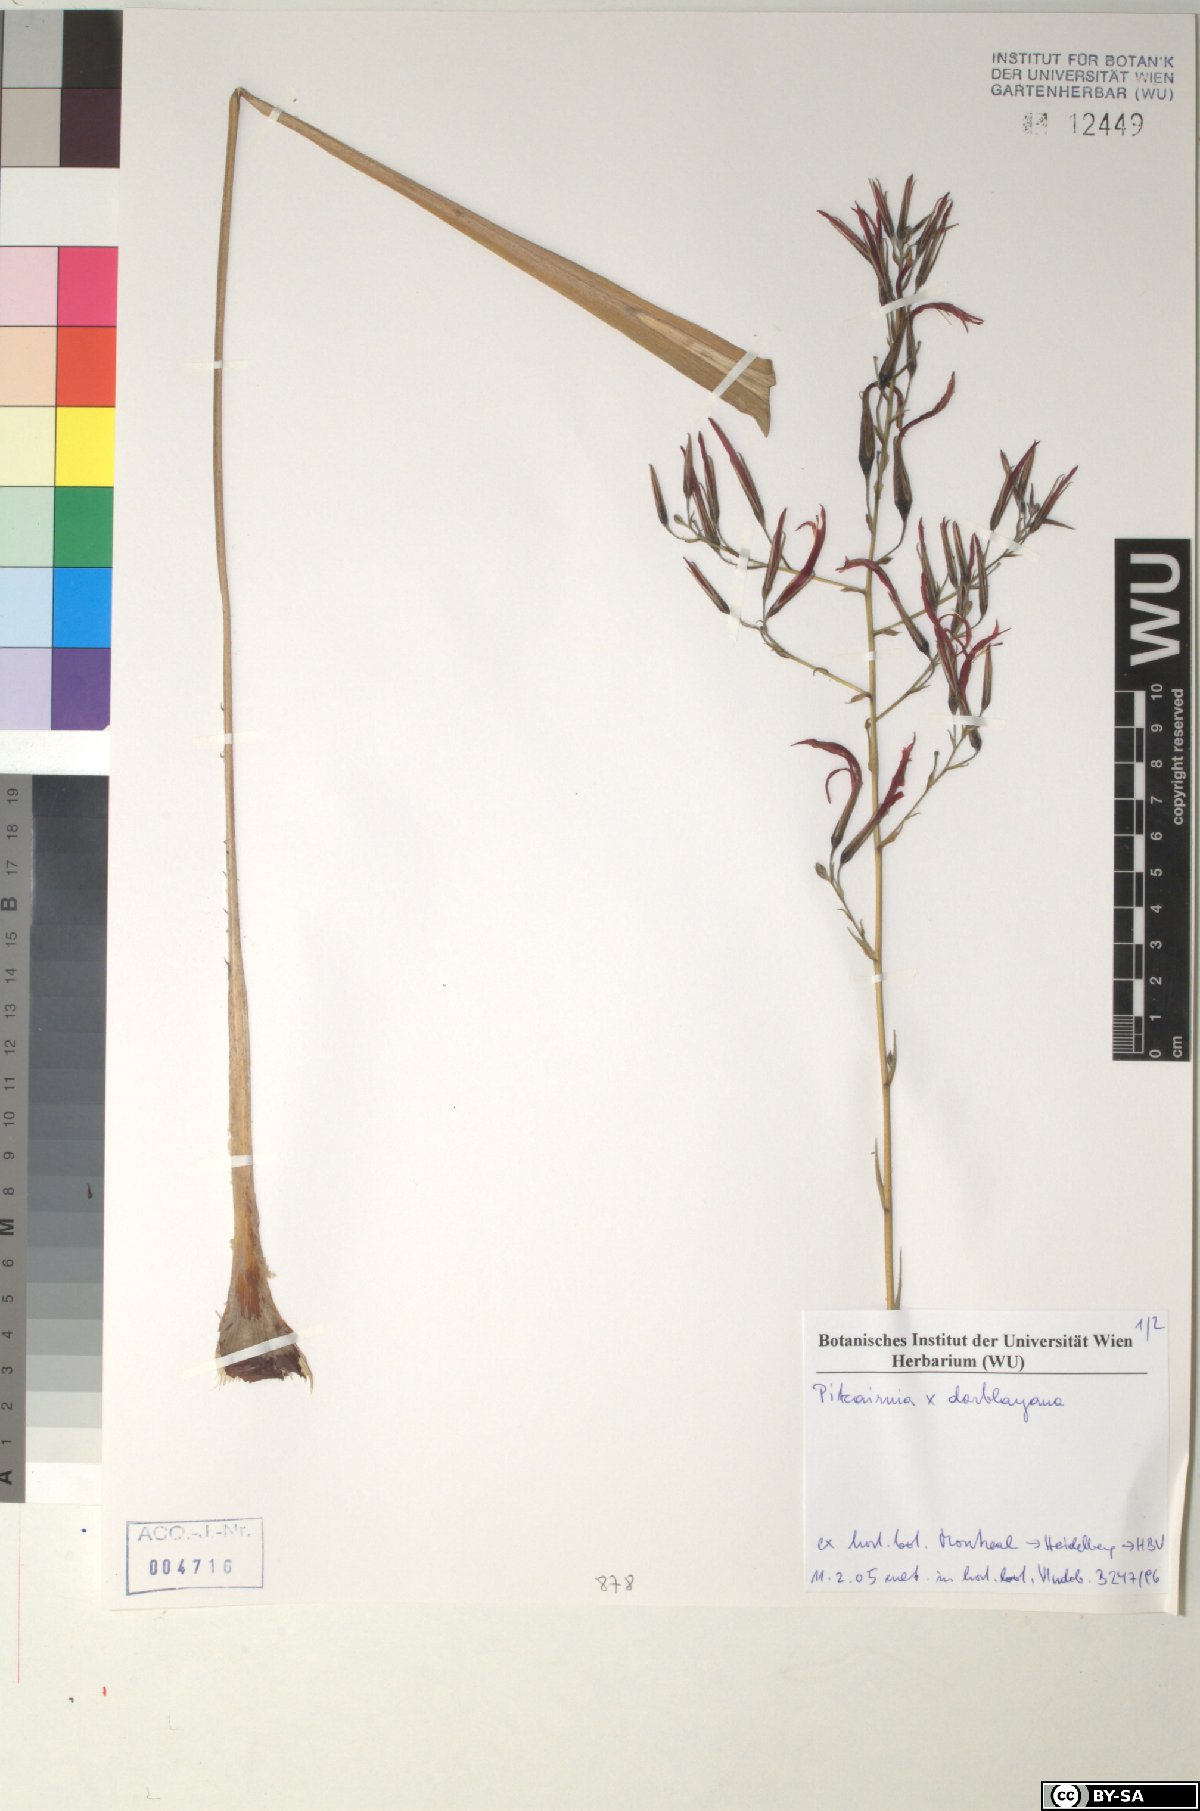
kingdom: Plantae
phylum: Tracheophyta
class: Liliopsida
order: Poales
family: Bromeliaceae
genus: Pitcairnia
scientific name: Pitcairnia
